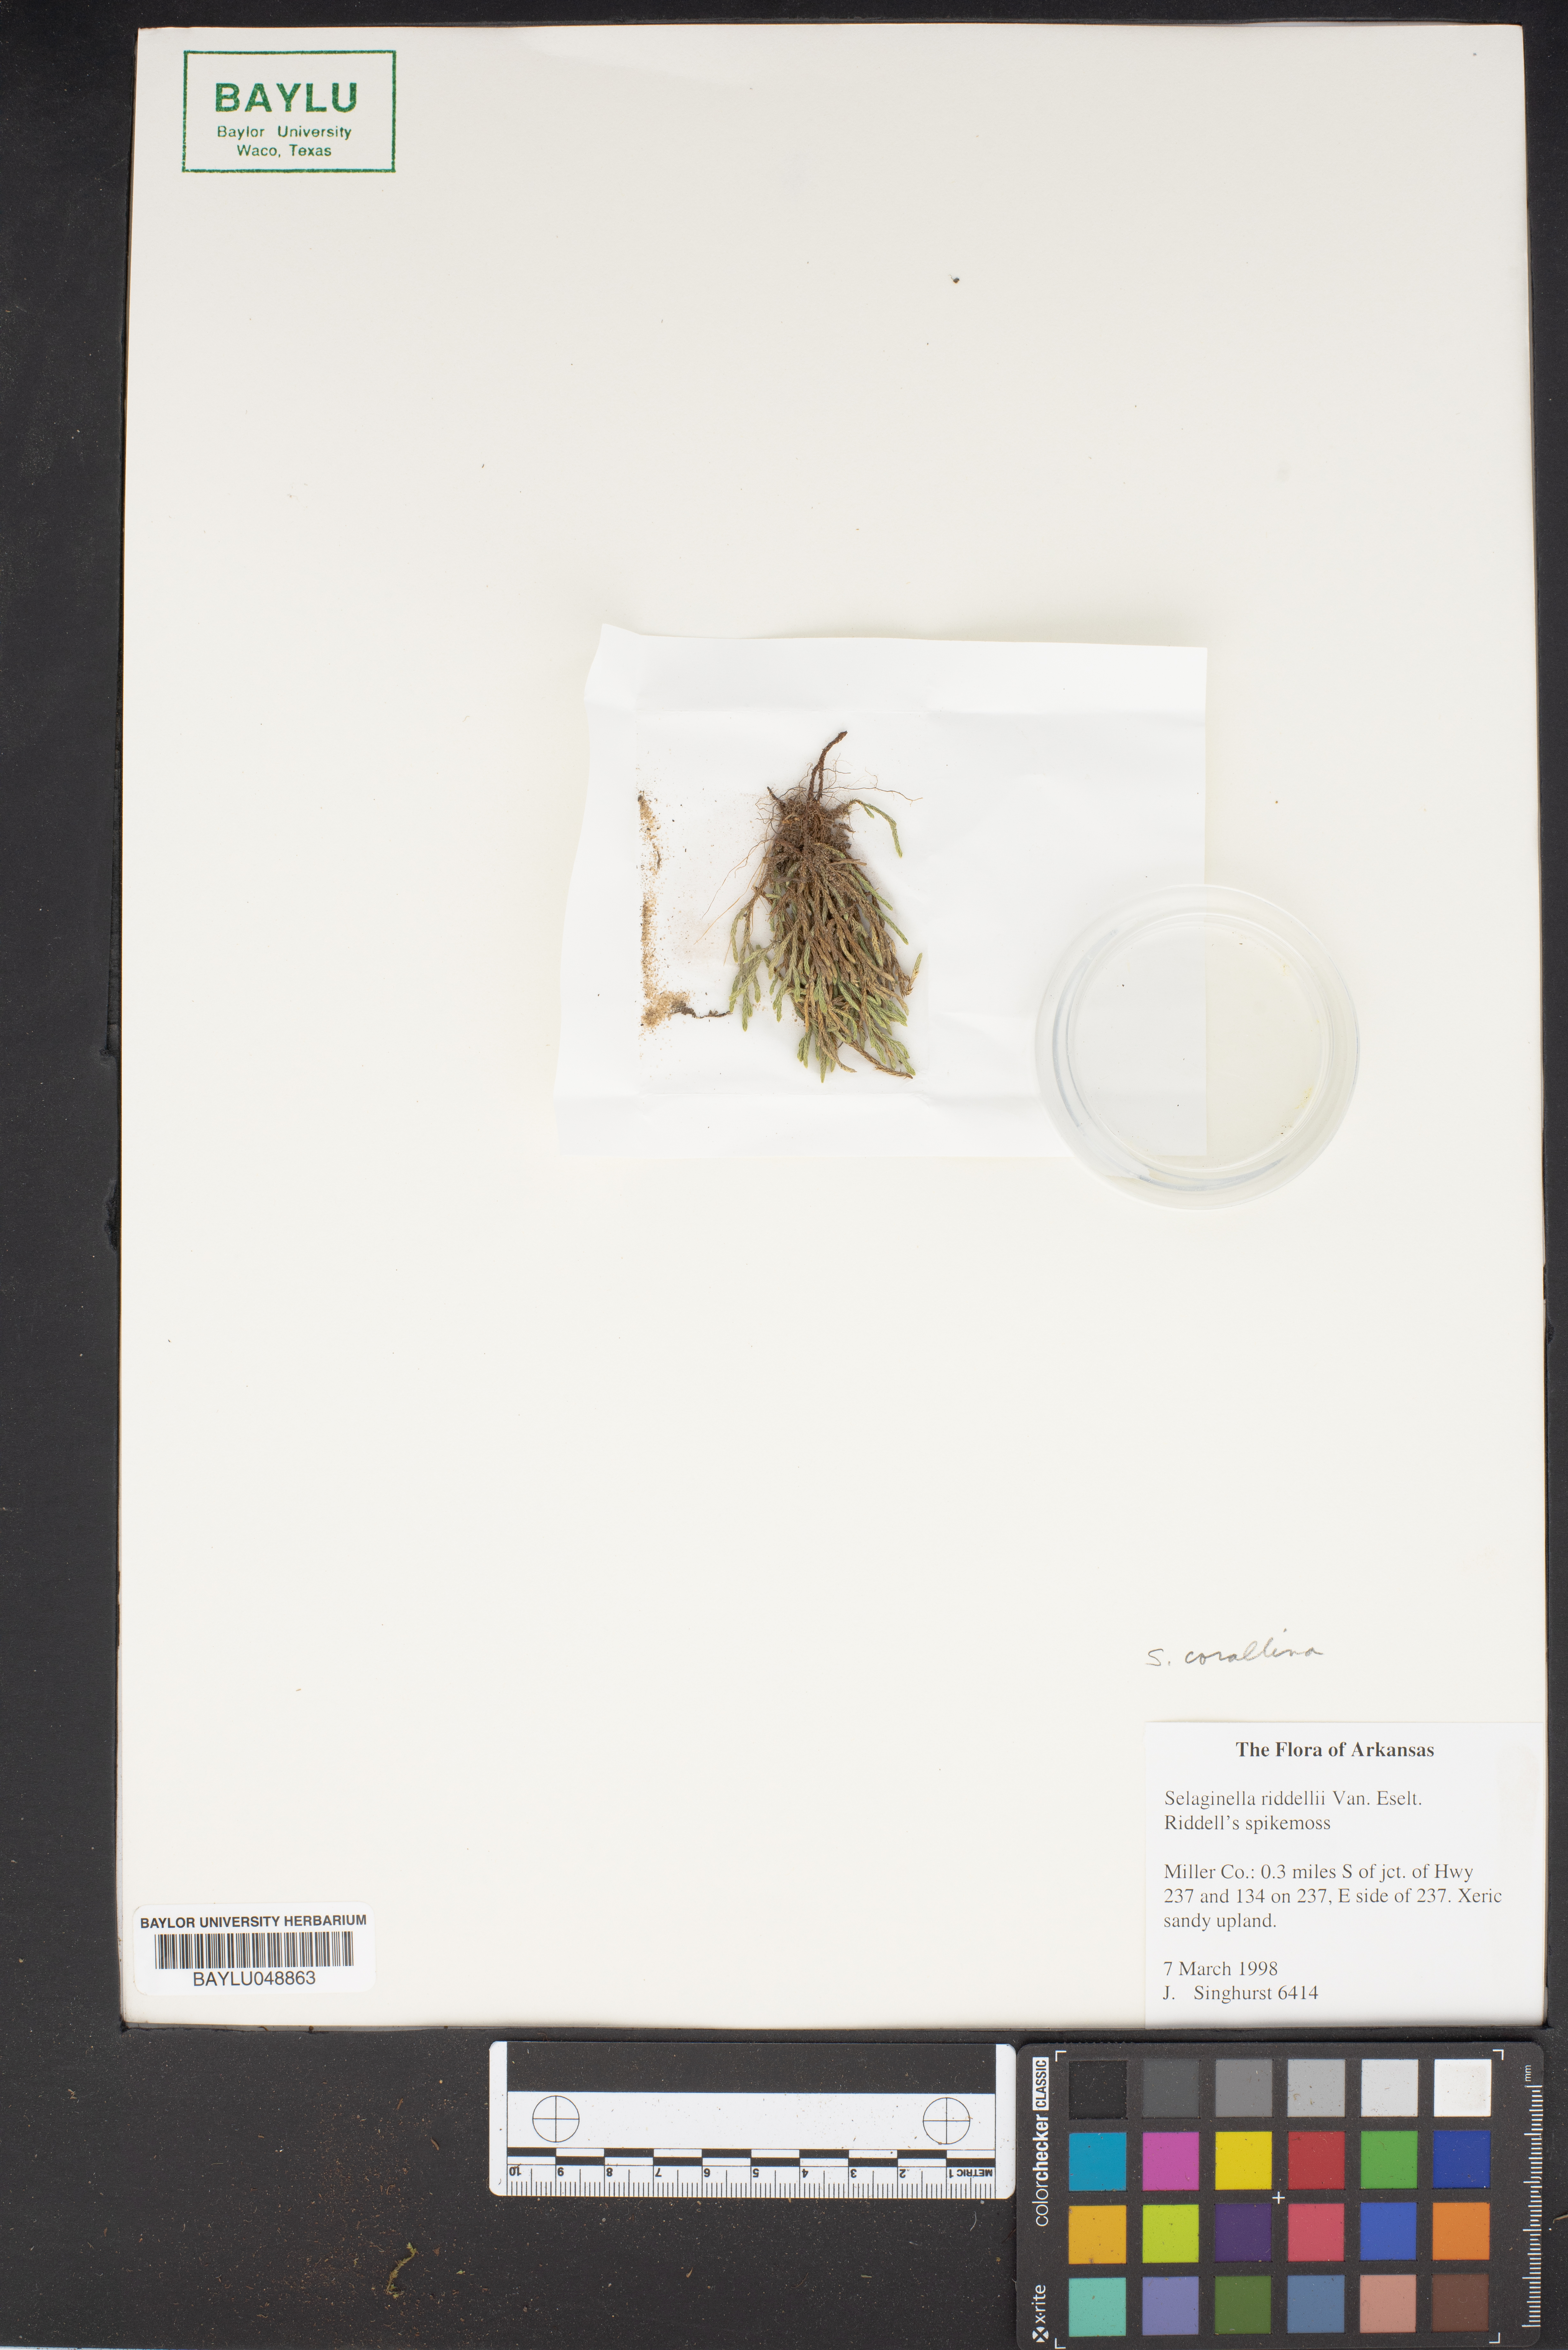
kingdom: Plantae
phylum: Tracheophyta
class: Lycopodiopsida
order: Selaginellales
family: Selaginellaceae
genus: Selaginella
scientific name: Selaginella corallina
